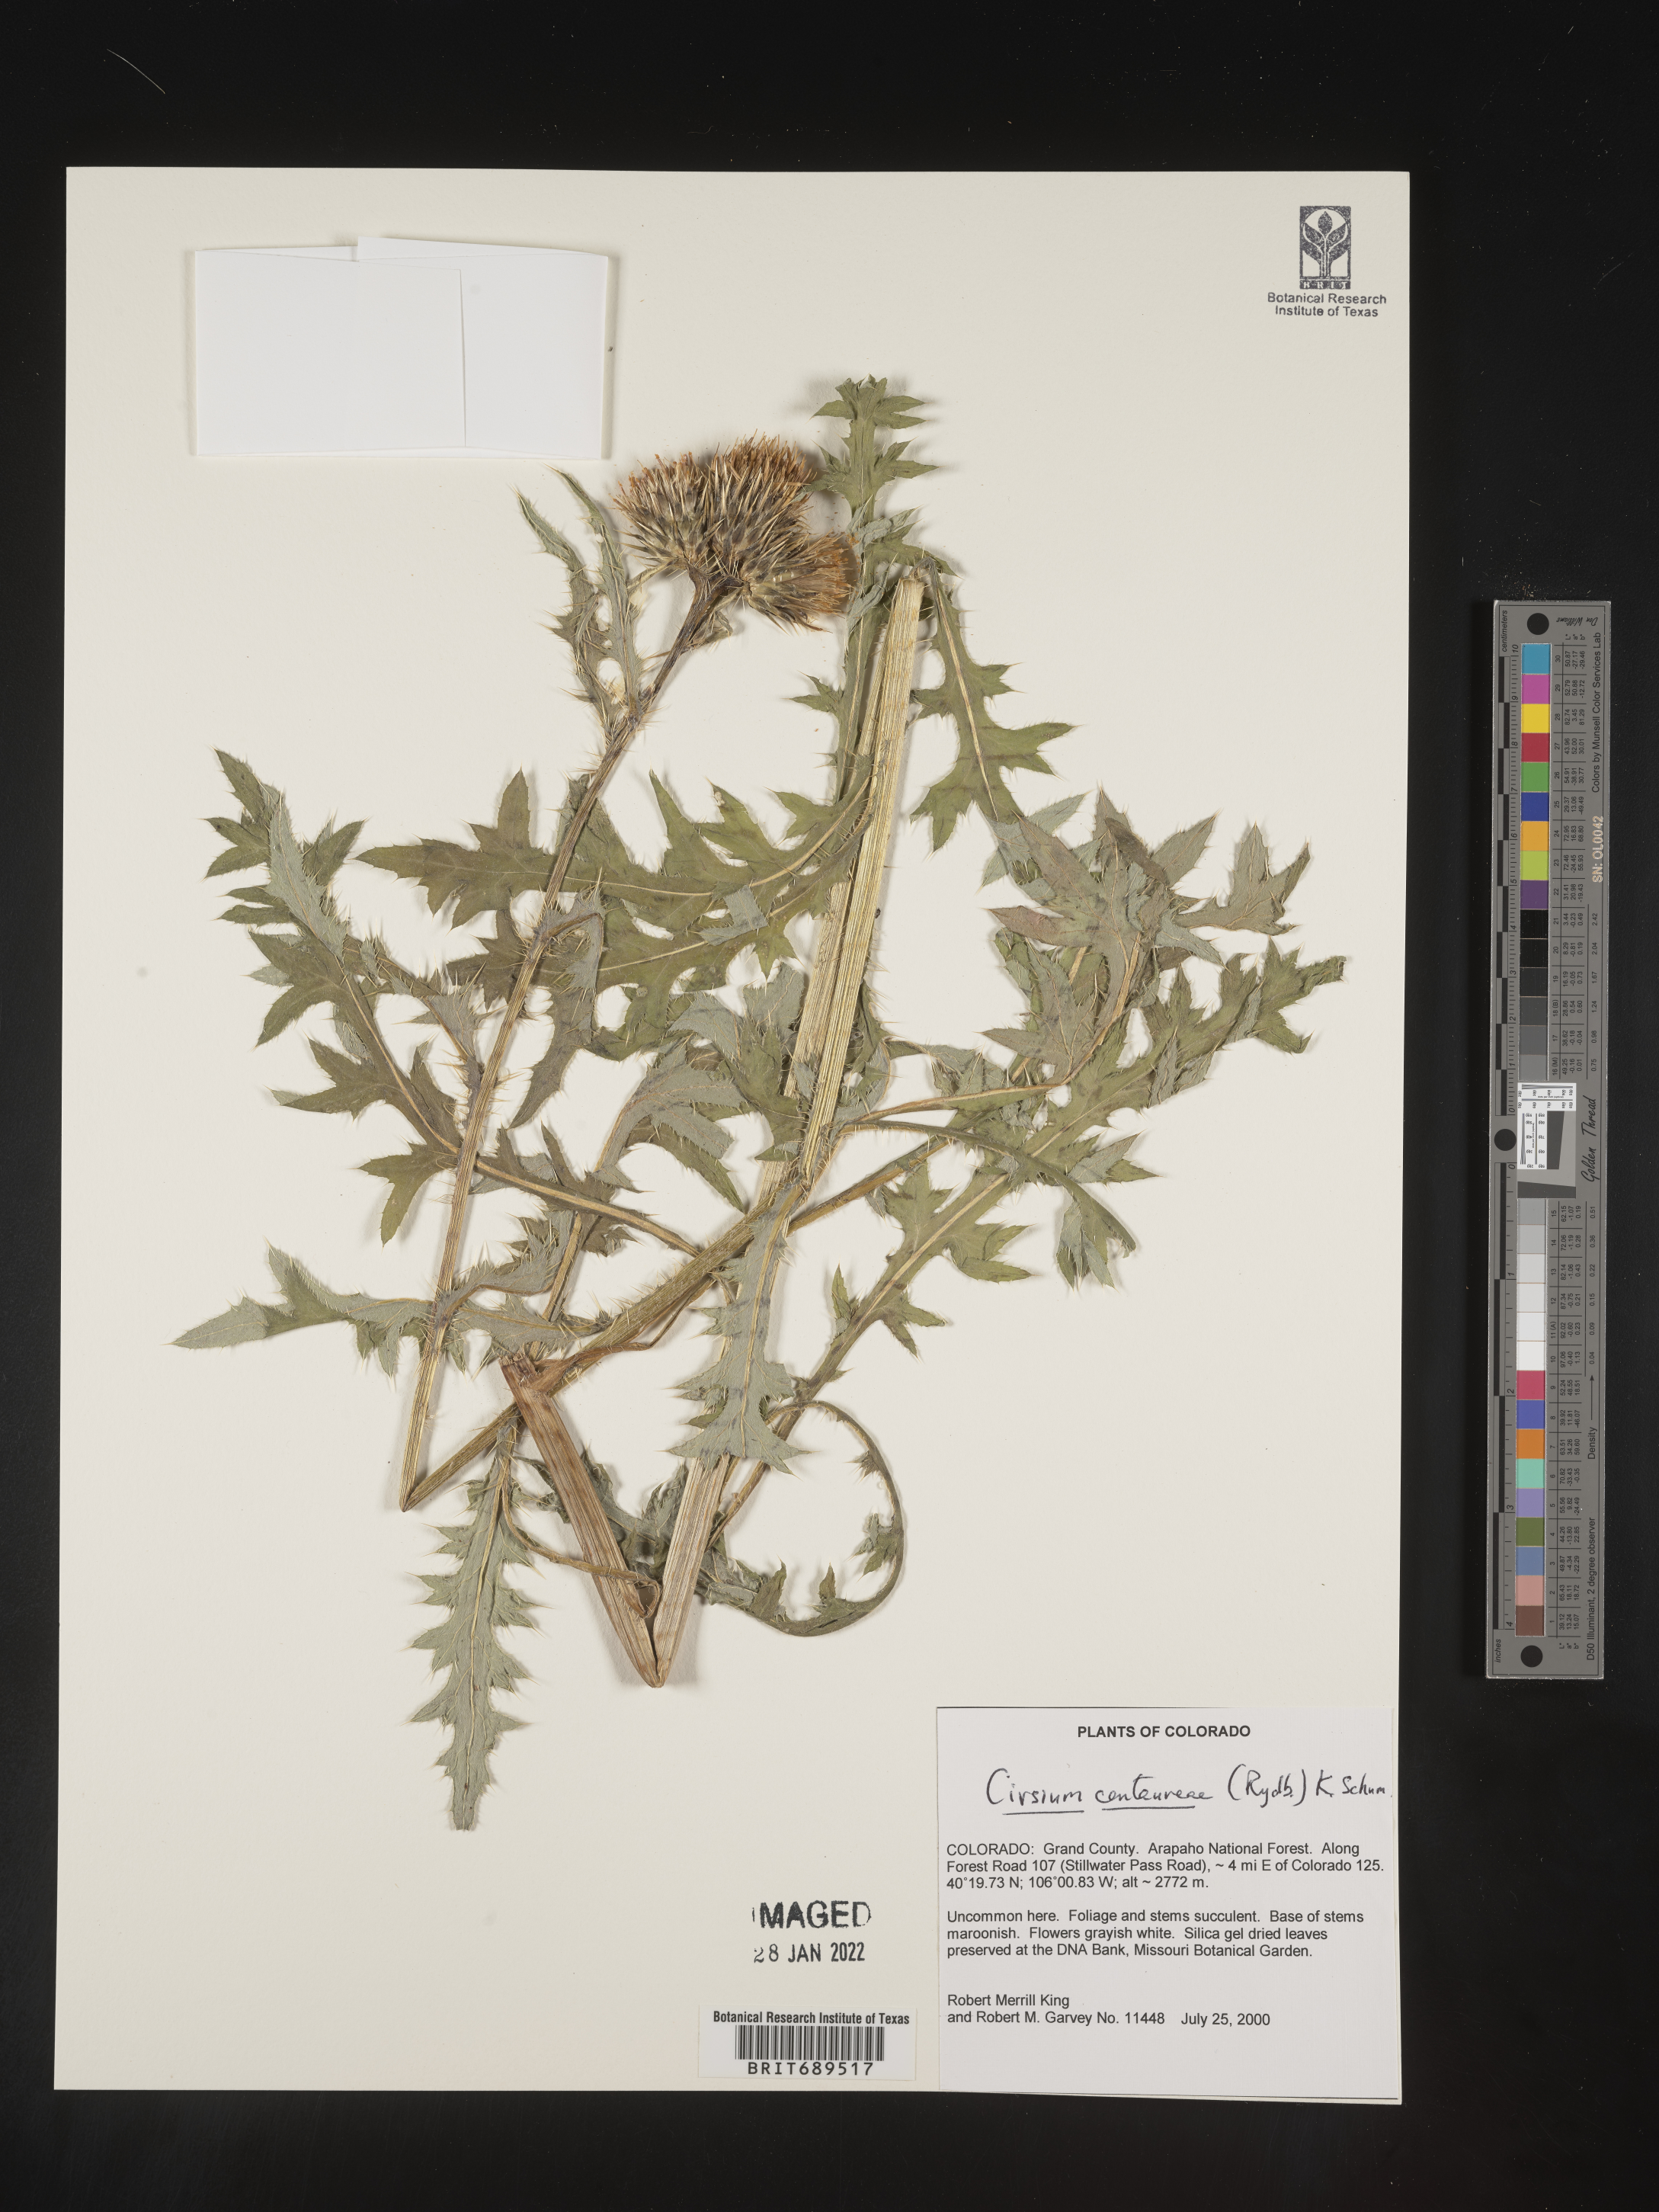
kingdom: Plantae
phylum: Tracheophyta
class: Magnoliopsida
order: Asterales
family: Asteraceae
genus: Cirsium
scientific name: Cirsium centaureae
